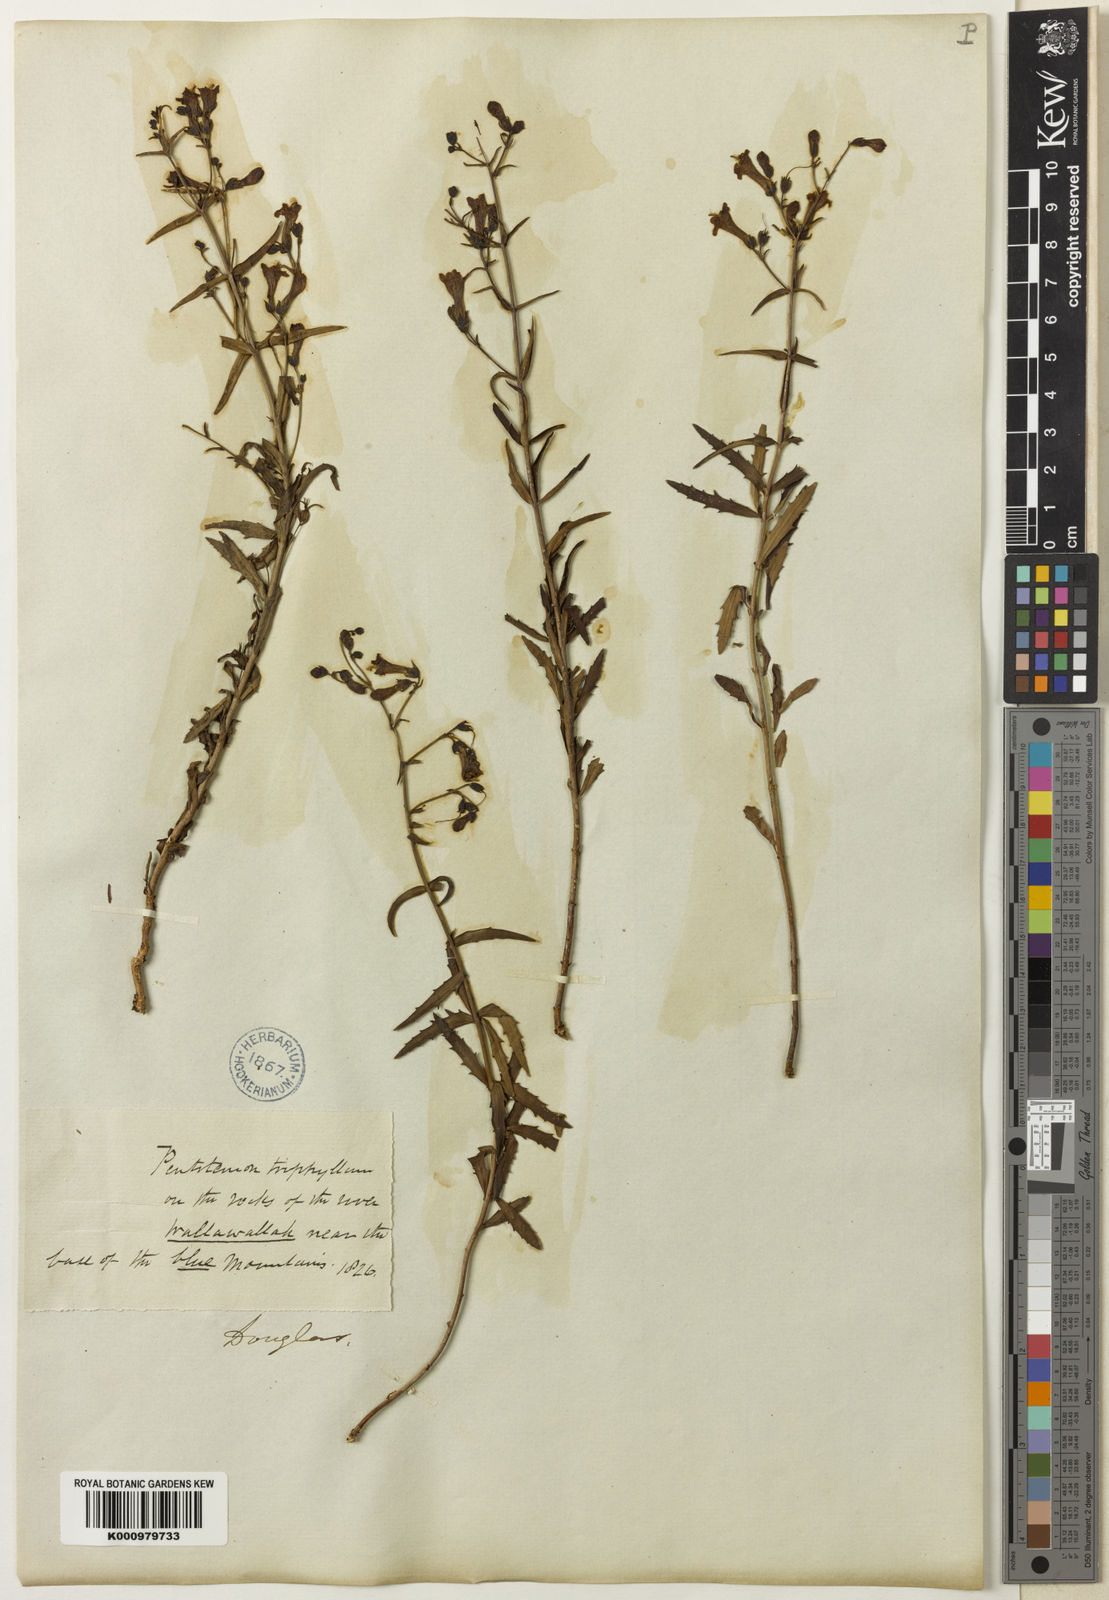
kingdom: Plantae
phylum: Tracheophyta
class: Magnoliopsida
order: Lamiales
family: Plantaginaceae
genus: Penstemon
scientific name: Penstemon triphyllus
